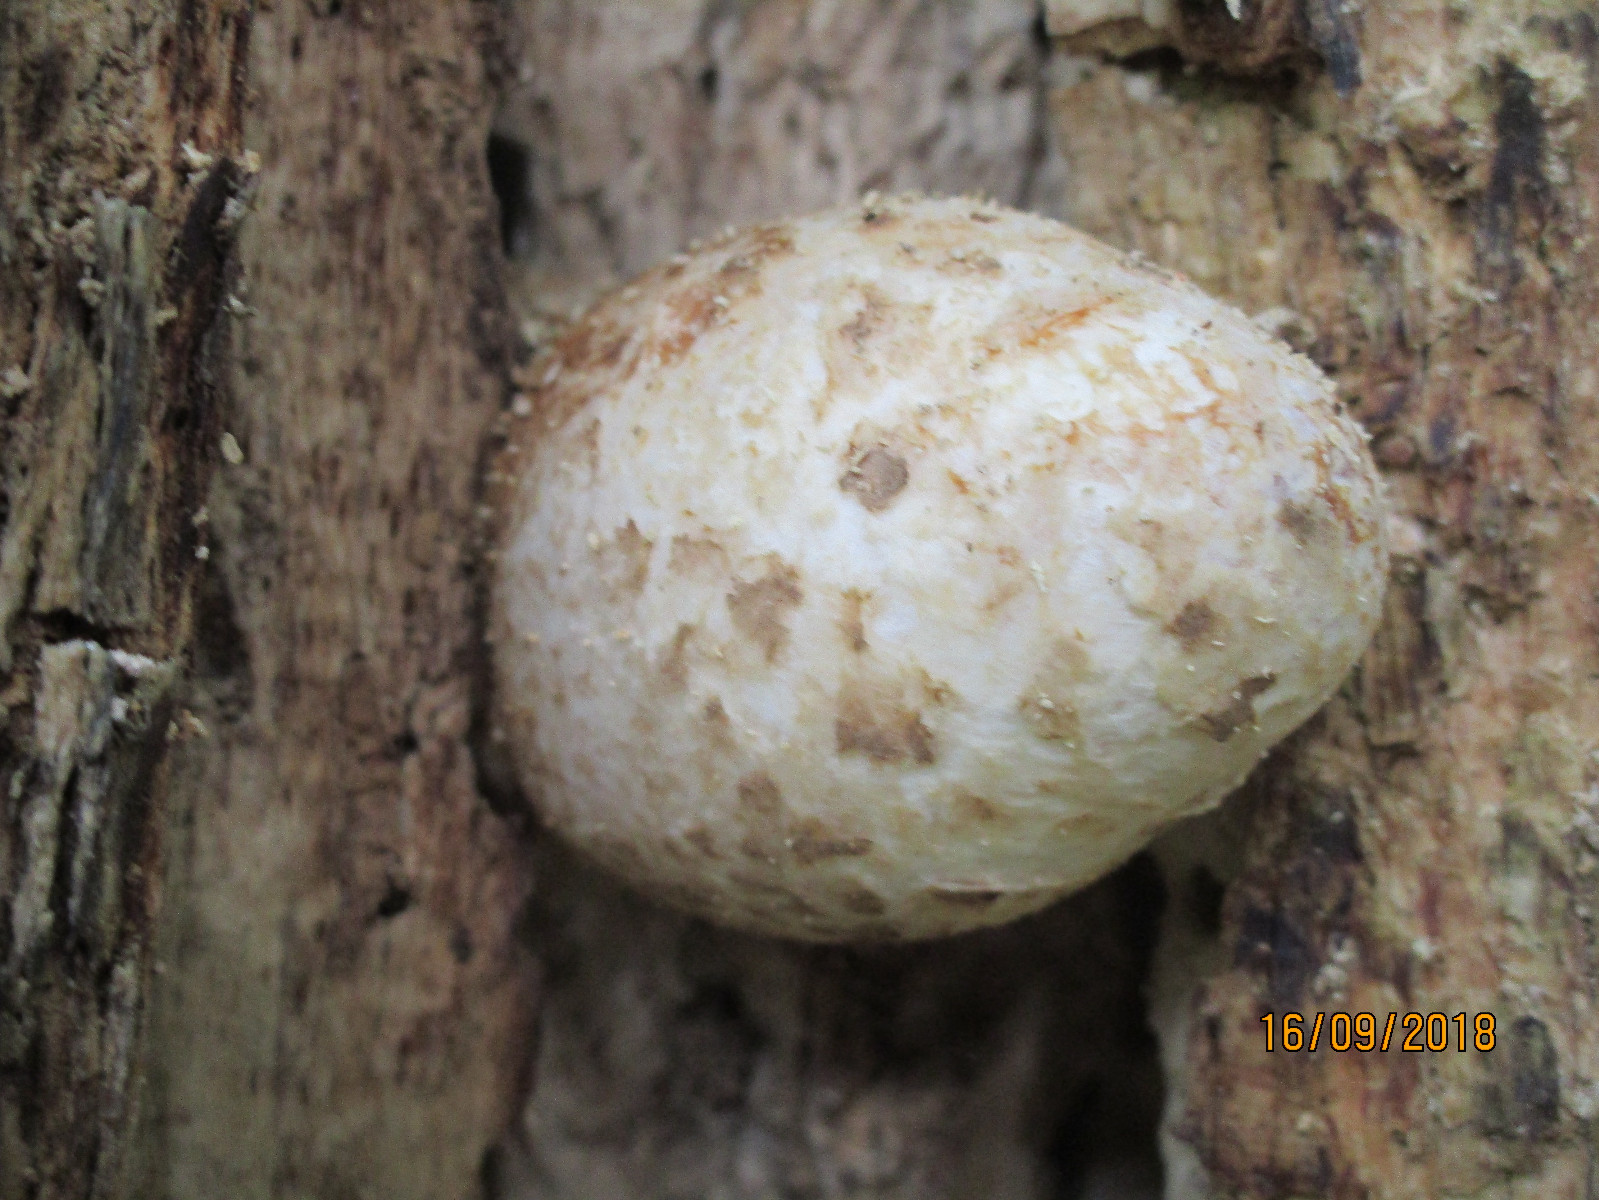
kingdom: Fungi
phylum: Basidiomycota
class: Agaricomycetes
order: Agaricales
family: Pluteaceae
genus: Volvariella
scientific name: Volvariella bombycina
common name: silkehåret posesvamp
